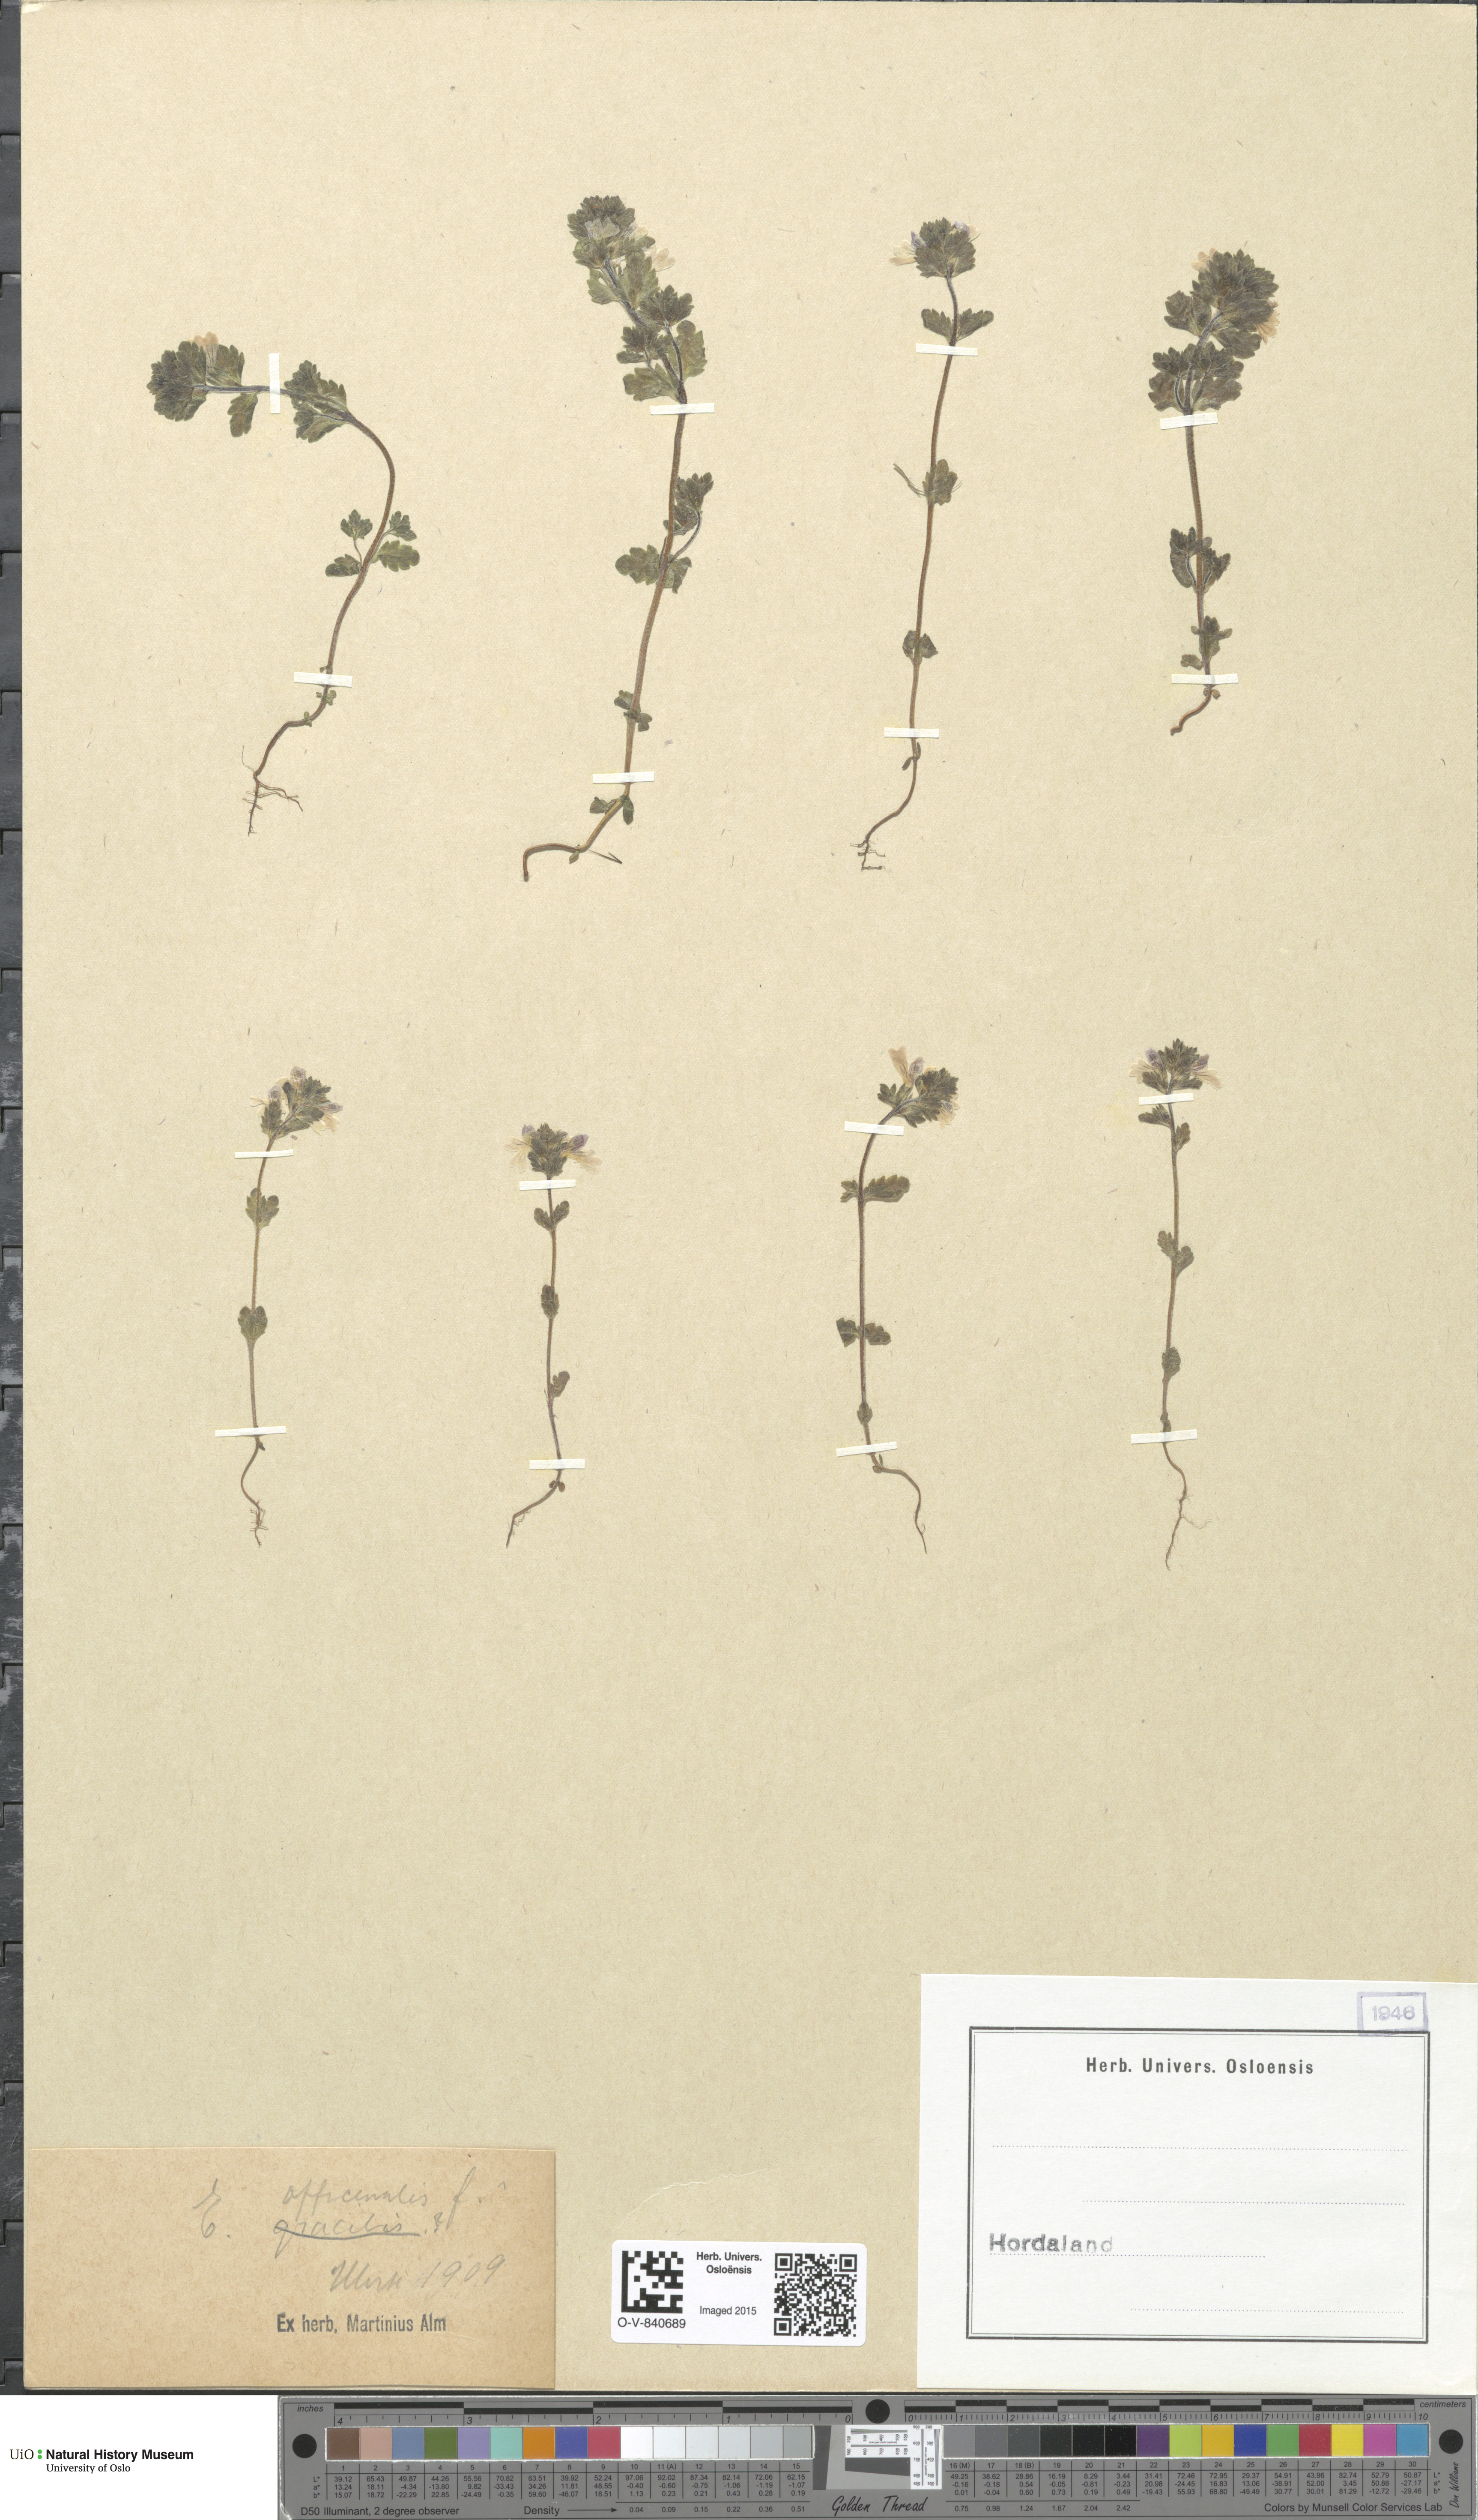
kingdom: Plantae
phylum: Tracheophyta
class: Magnoliopsida
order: Lamiales
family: Orobanchaceae
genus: Euphrasia
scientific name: Euphrasia stricta
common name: Drug eyebright
